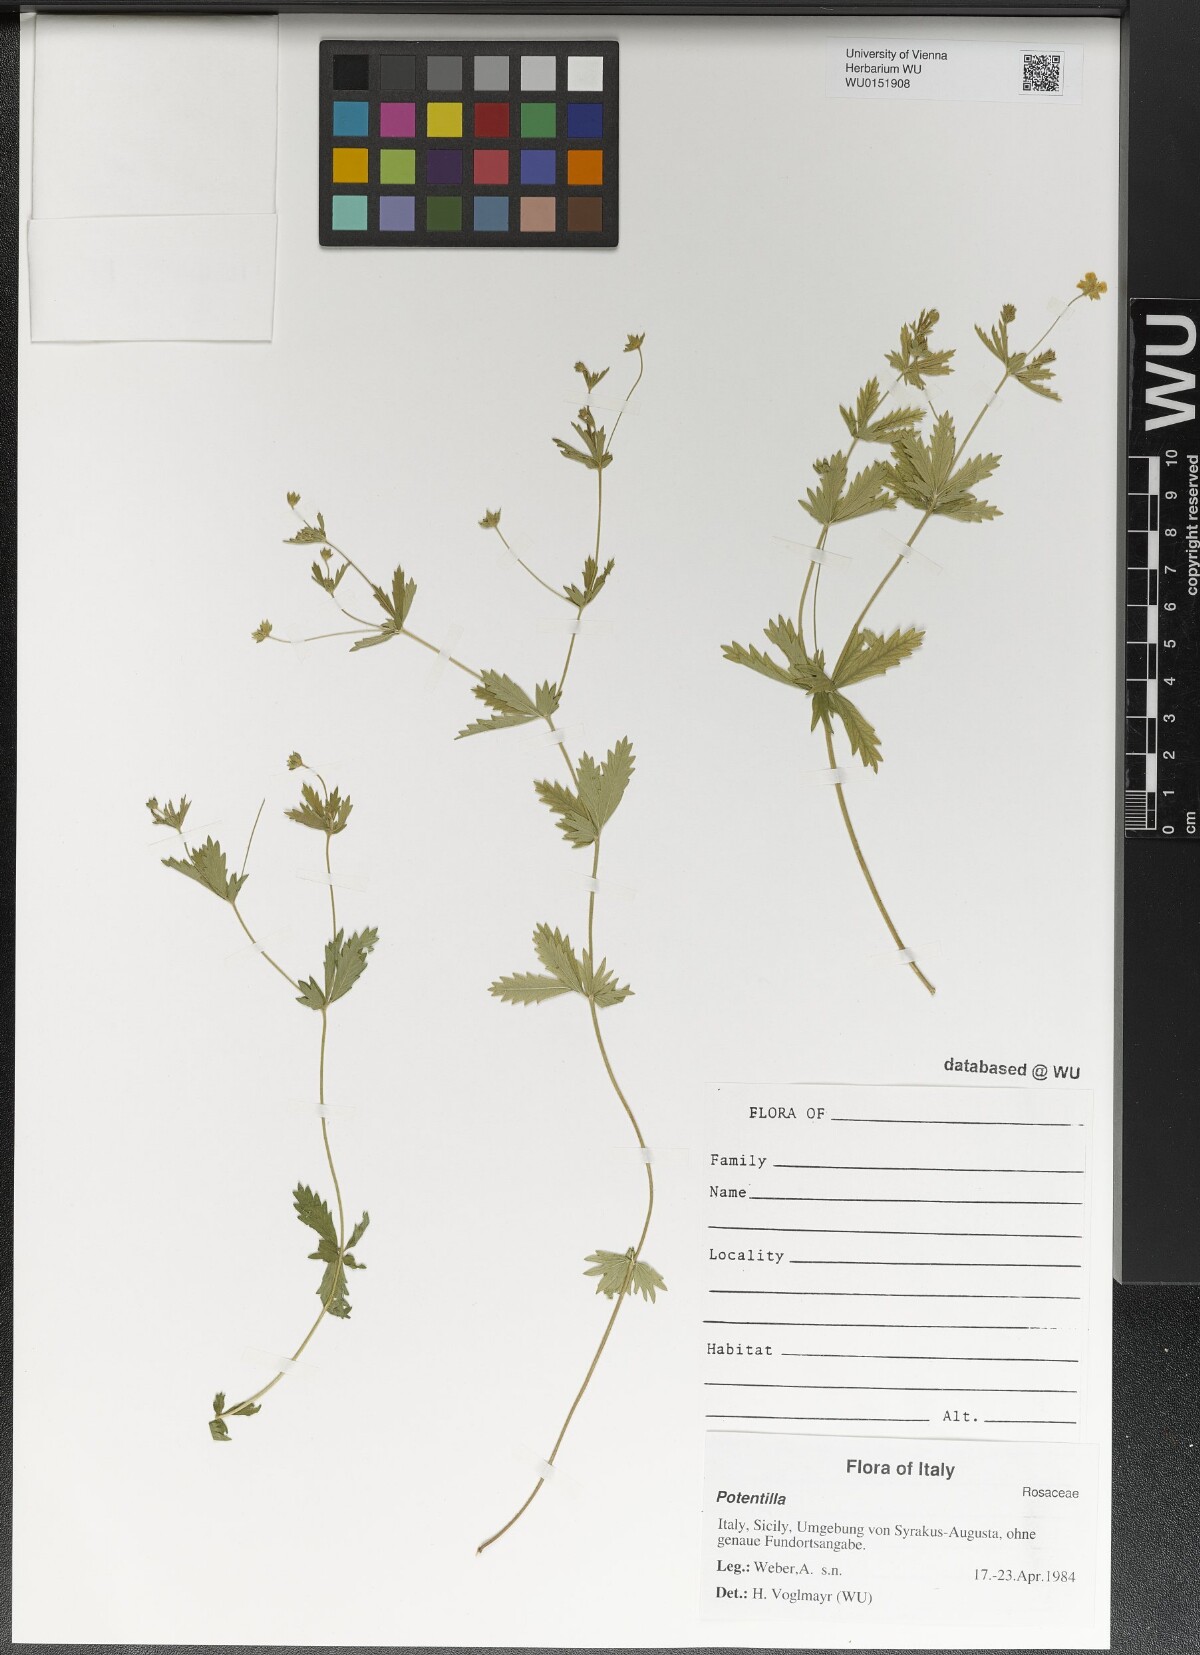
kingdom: Plantae
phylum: Tracheophyta
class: Magnoliopsida
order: Rosales
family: Rosaceae
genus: Potentilla
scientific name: Potentilla
